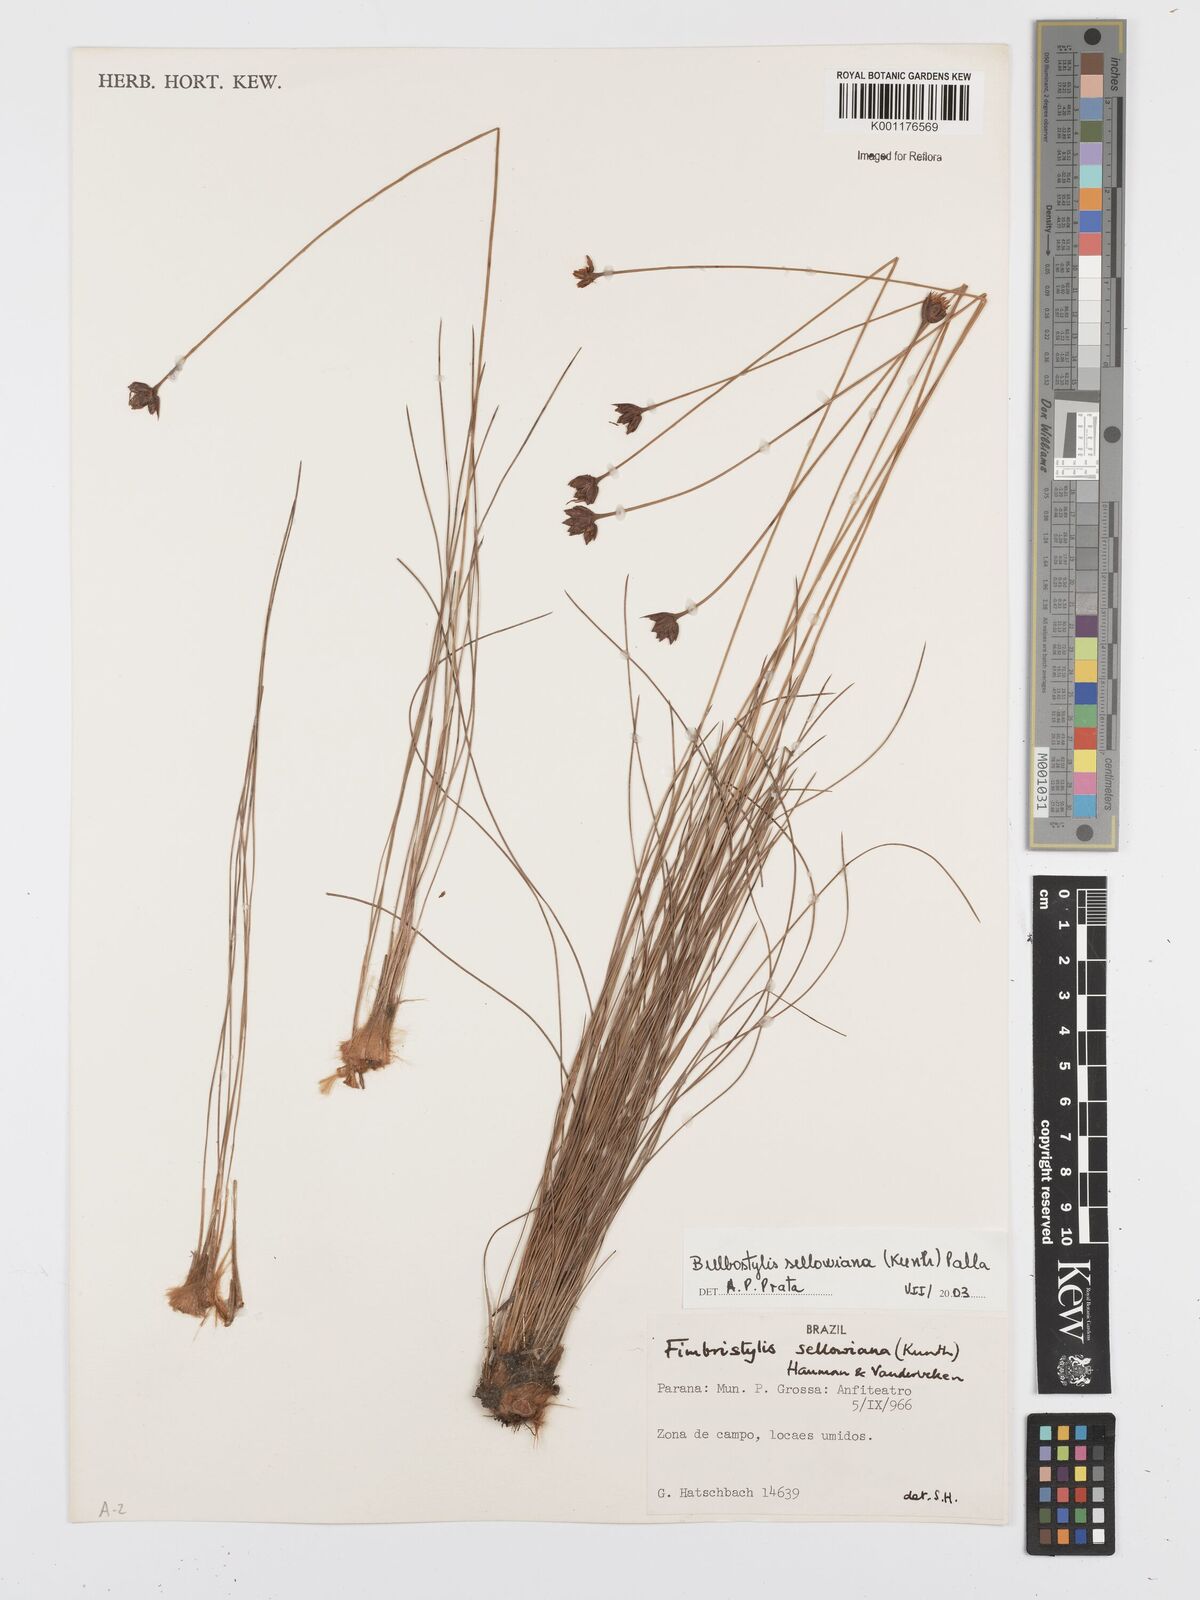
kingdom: Plantae
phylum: Tracheophyta
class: Liliopsida
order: Poales
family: Cyperaceae
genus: Bulbostylis
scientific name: Bulbostylis sellowiana
